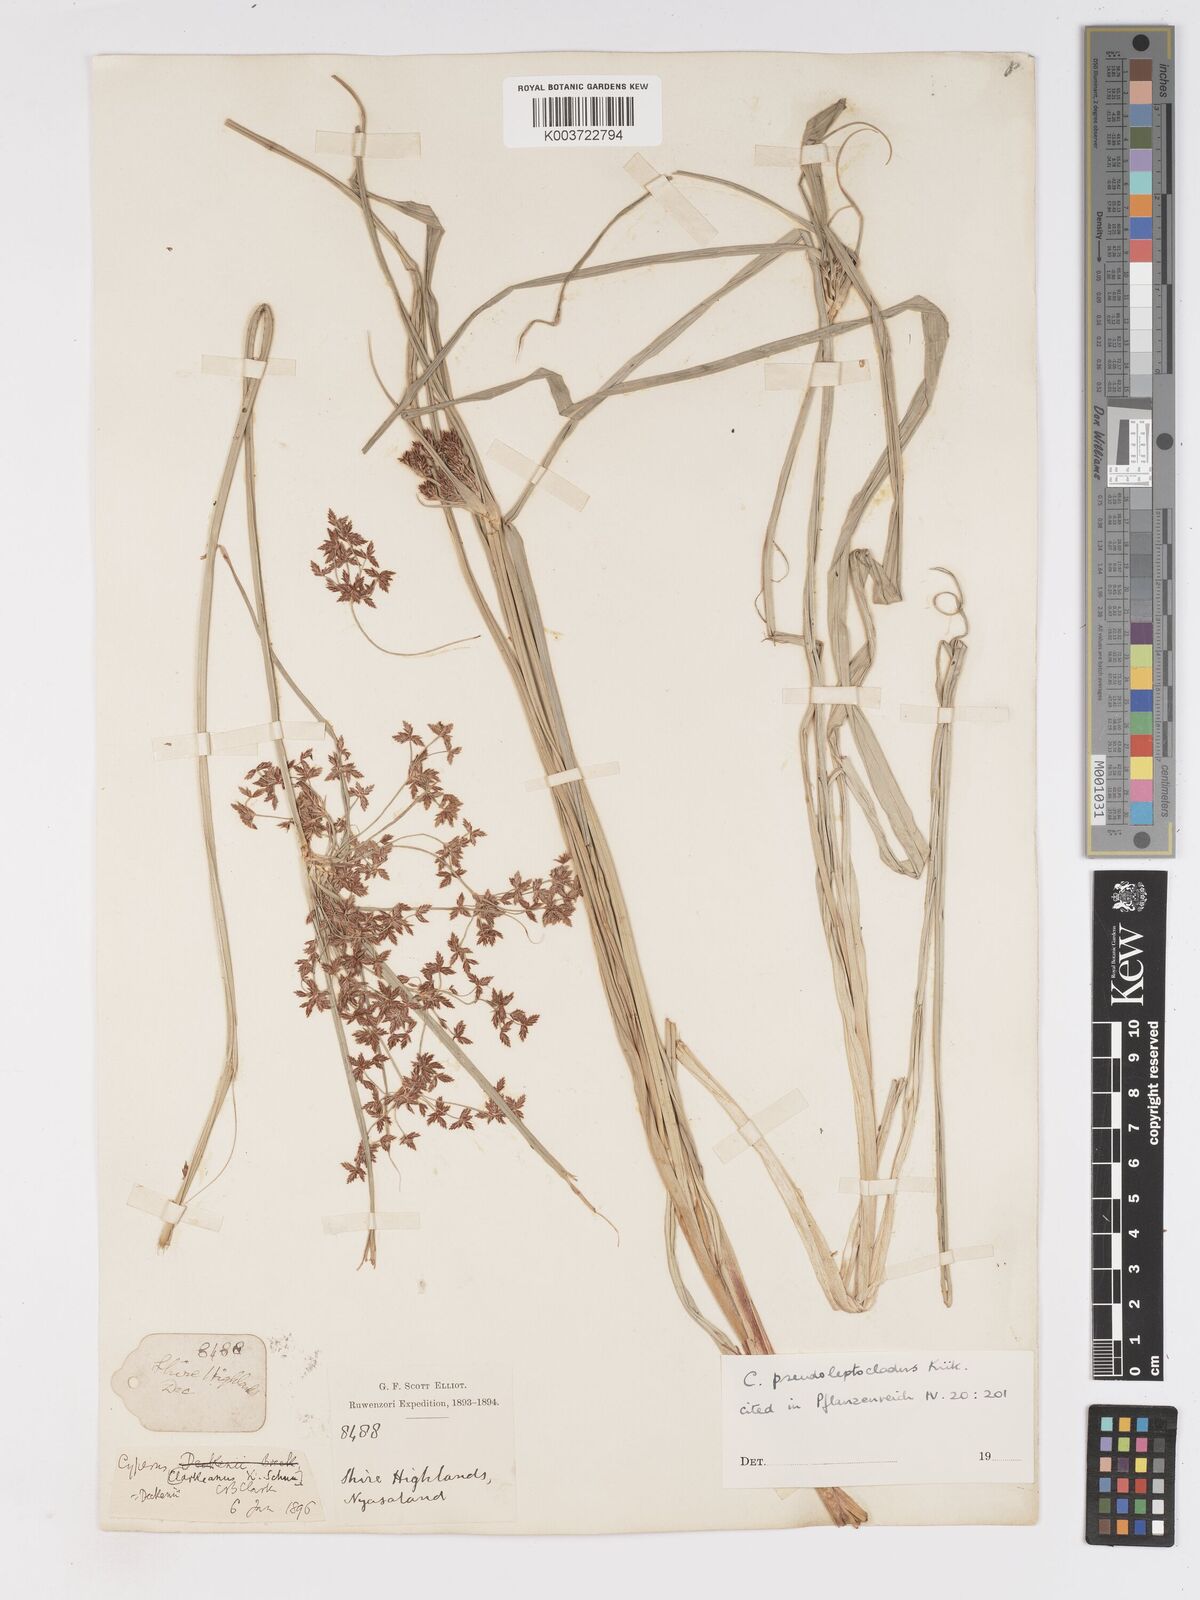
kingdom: Plantae
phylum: Tracheophyta
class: Liliopsida
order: Poales
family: Cyperaceae
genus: Cyperus
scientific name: Cyperus glaucophyllus
